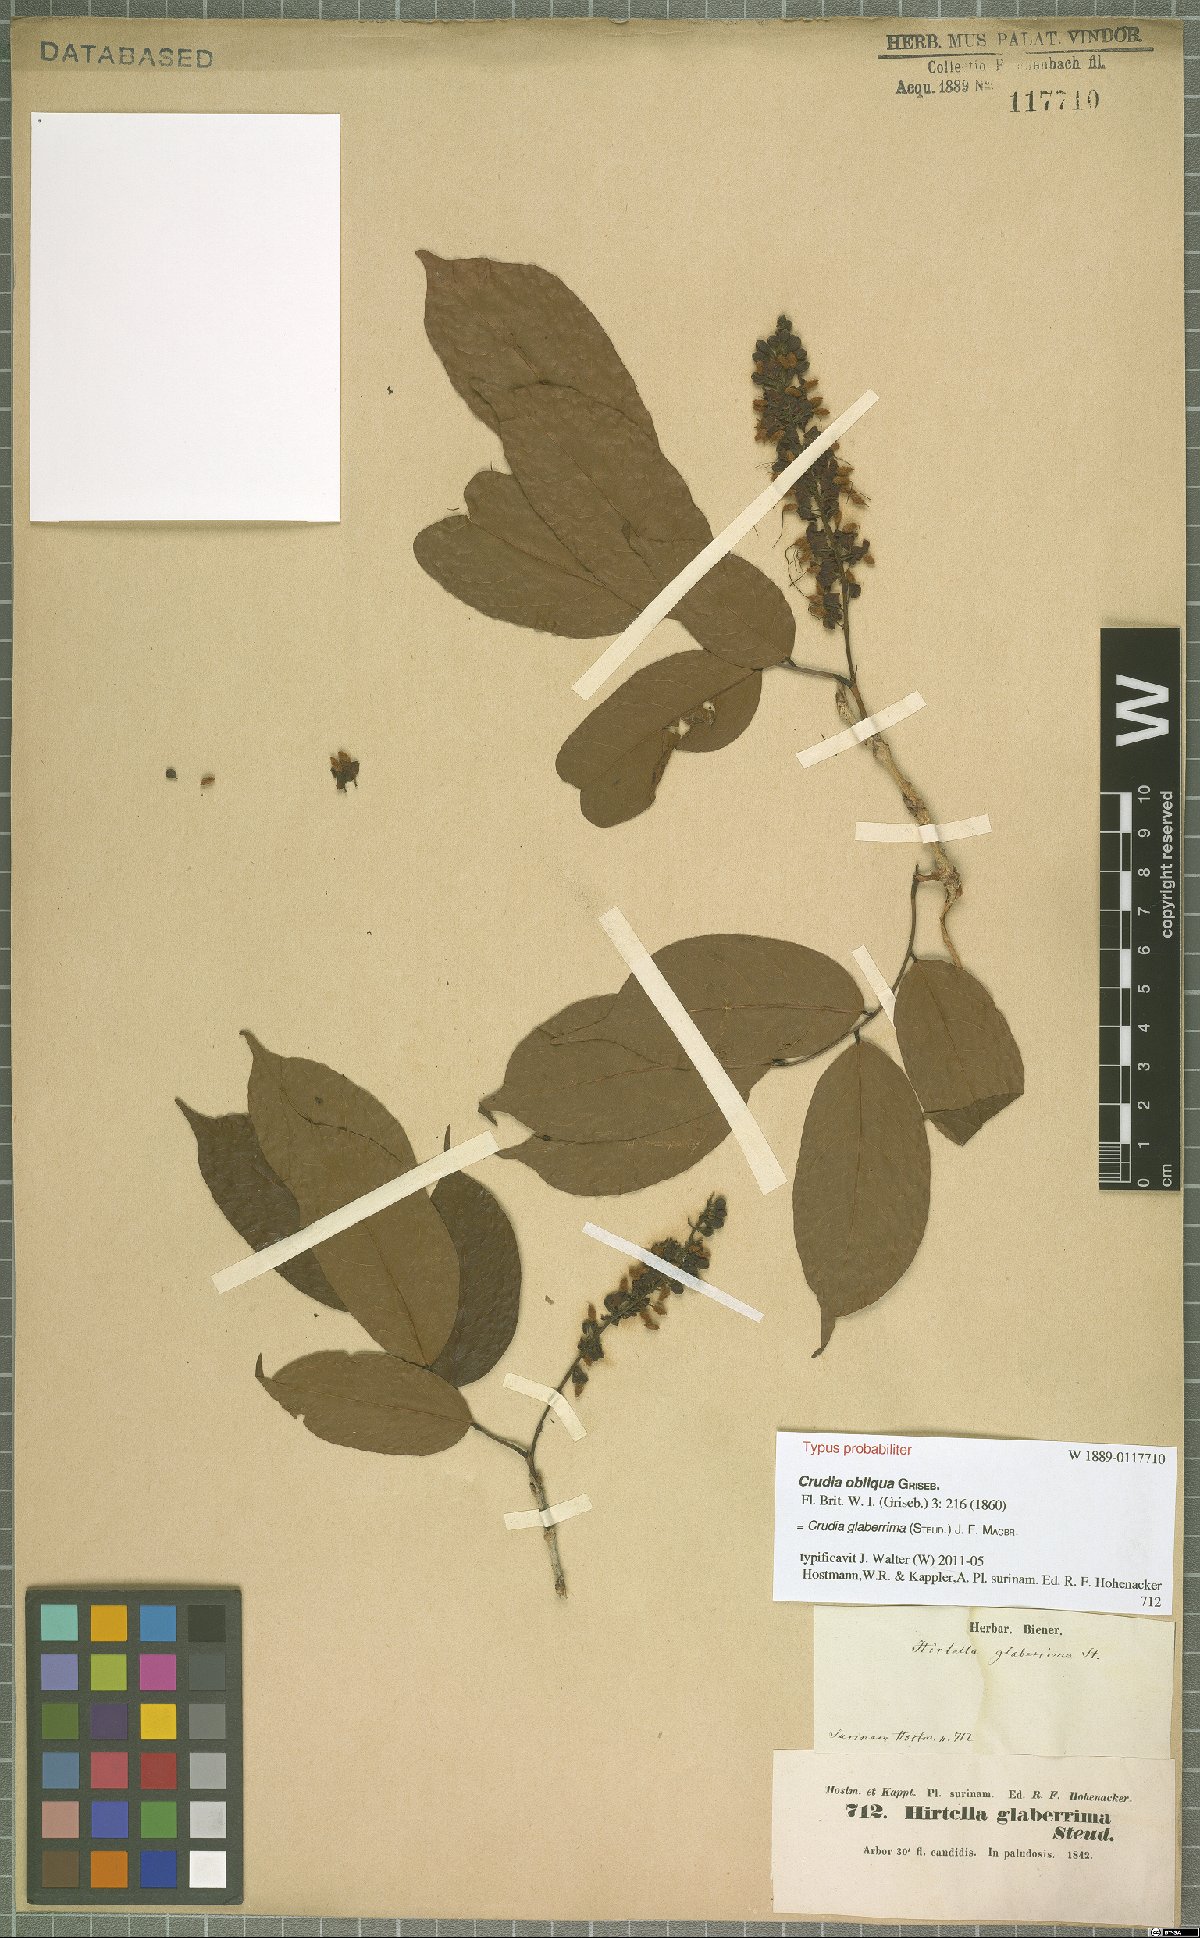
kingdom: Plantae
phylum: Tracheophyta
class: Magnoliopsida
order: Fabales
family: Fabaceae
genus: Crudia
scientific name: Crudia glaberrima
